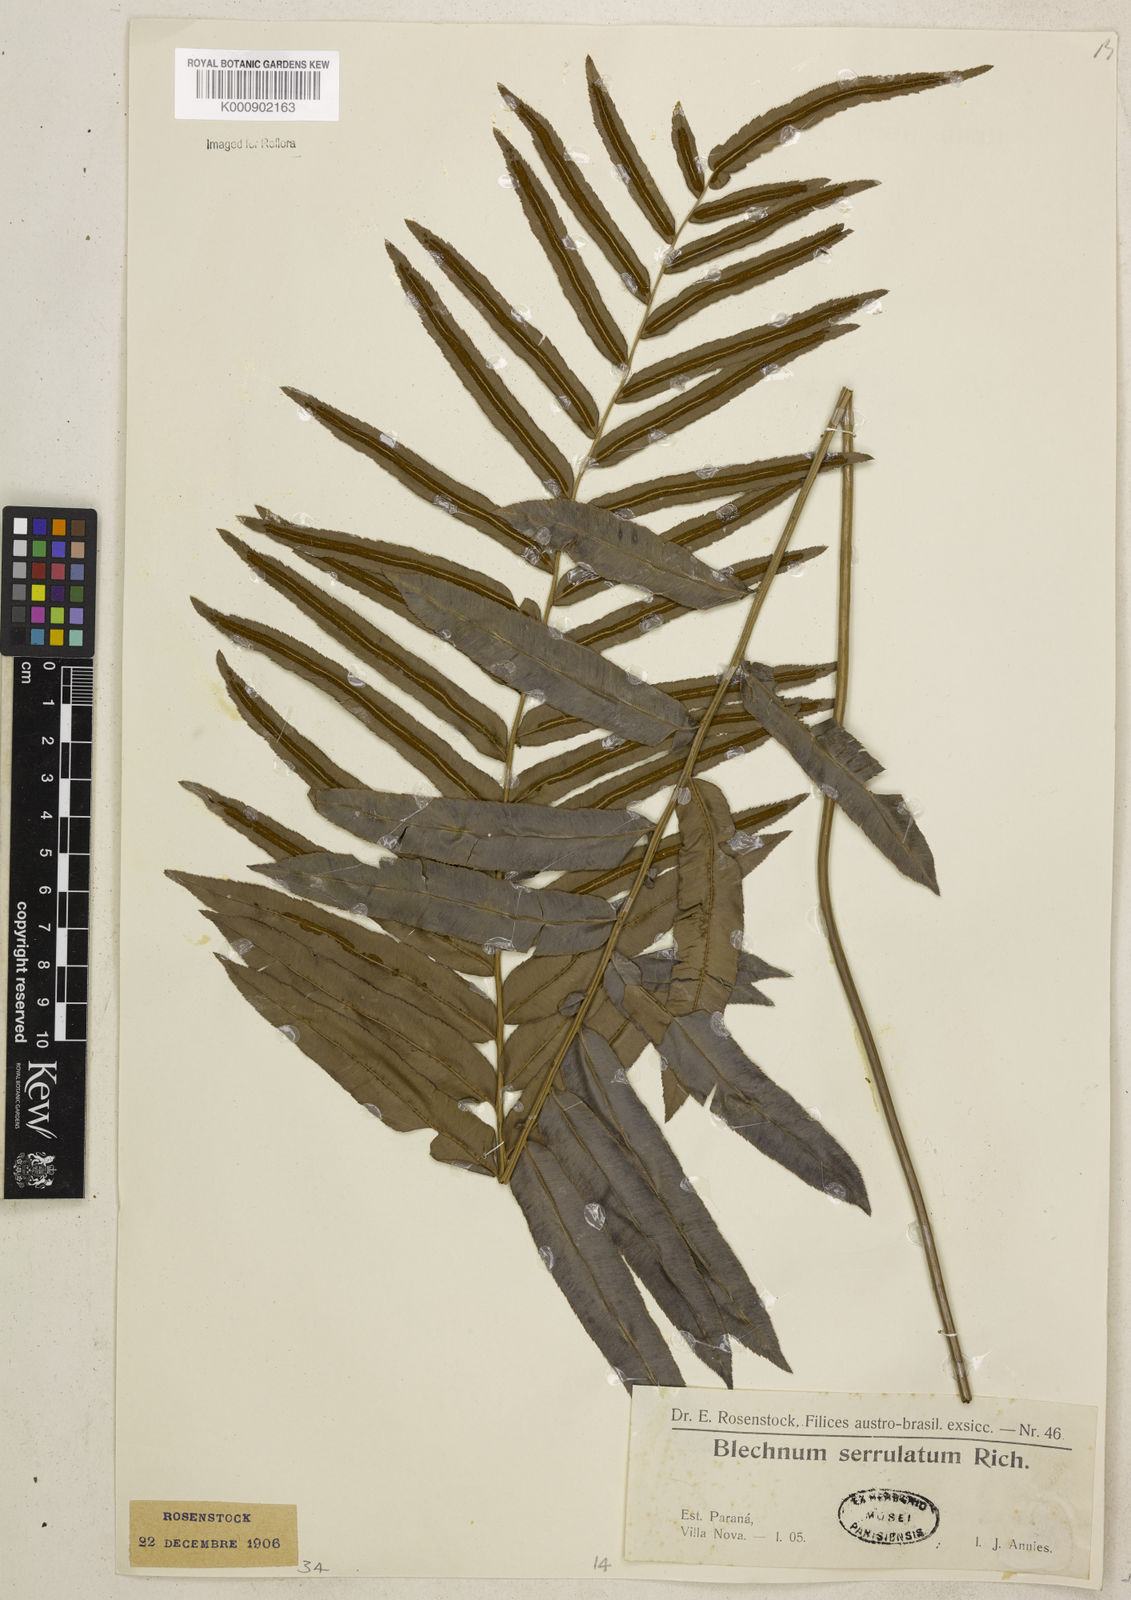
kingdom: Plantae
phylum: Tracheophyta
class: Polypodiopsida
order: Polypodiales
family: Blechnaceae
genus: Telmatoblechnum
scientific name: Telmatoblechnum serrulatum
